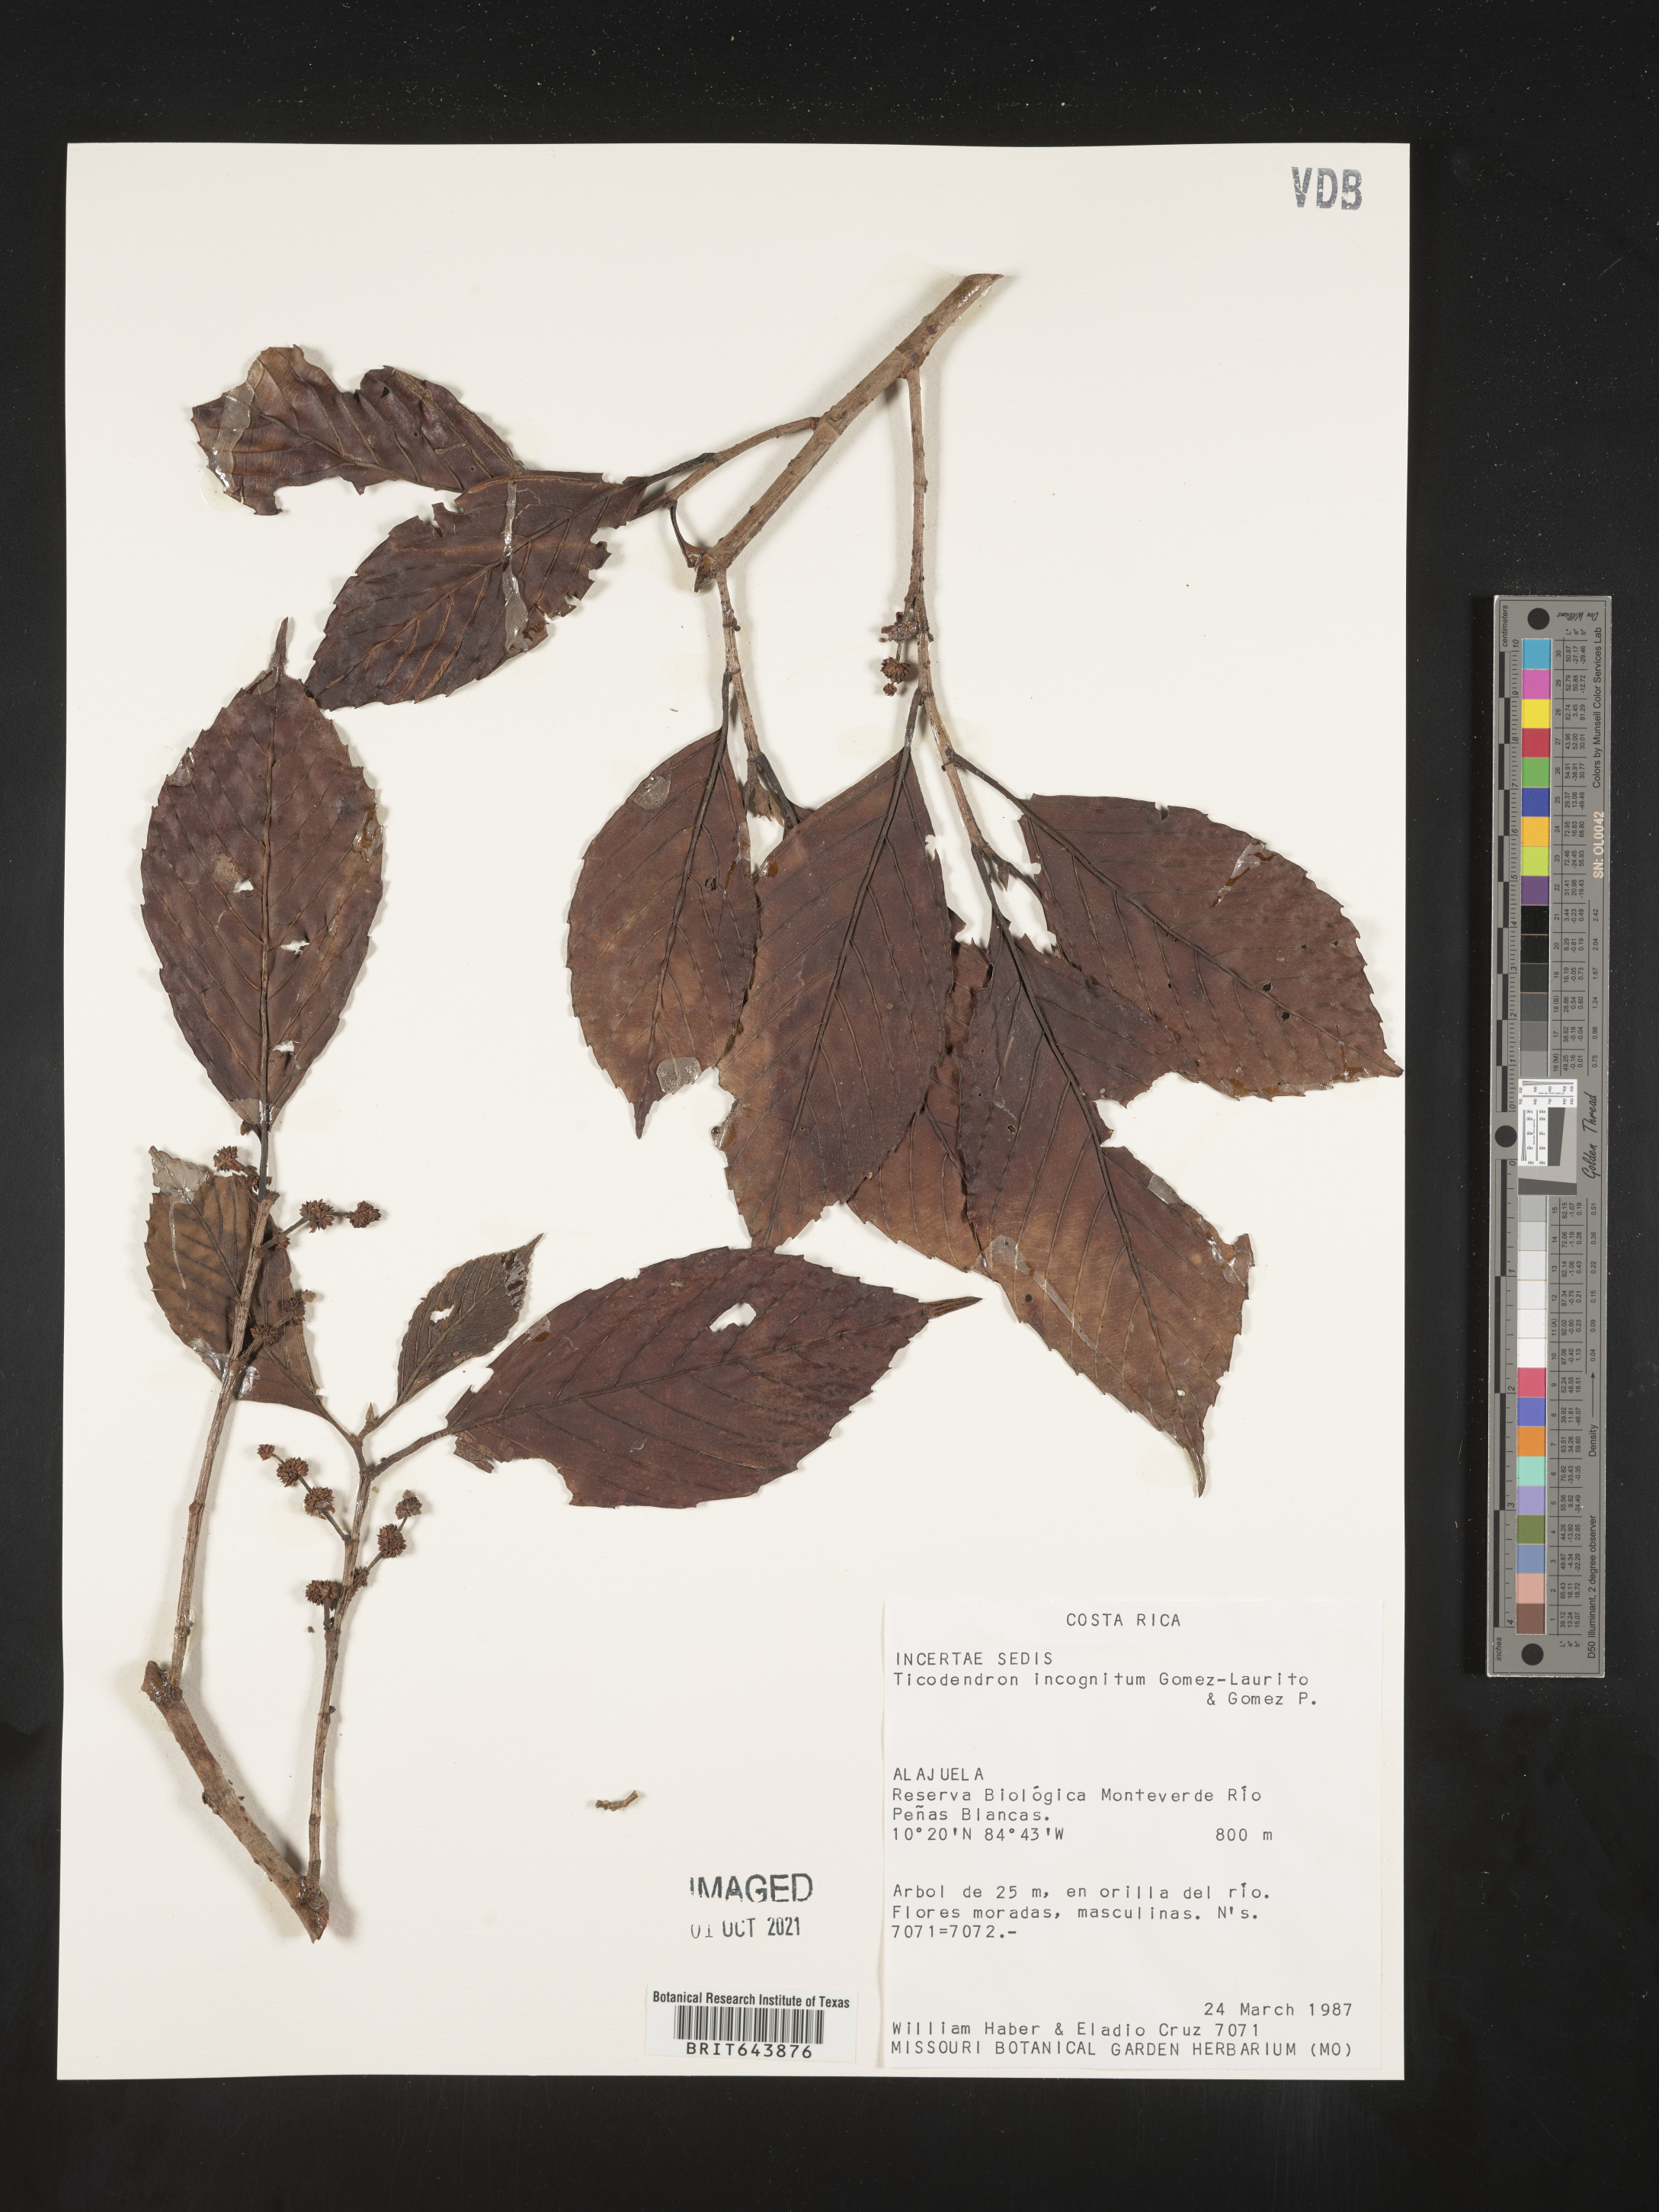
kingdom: Plantae
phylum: Tracheophyta
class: Magnoliopsida
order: Fagales
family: Ticodendraceae
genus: Ticodendron
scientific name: Ticodendron
